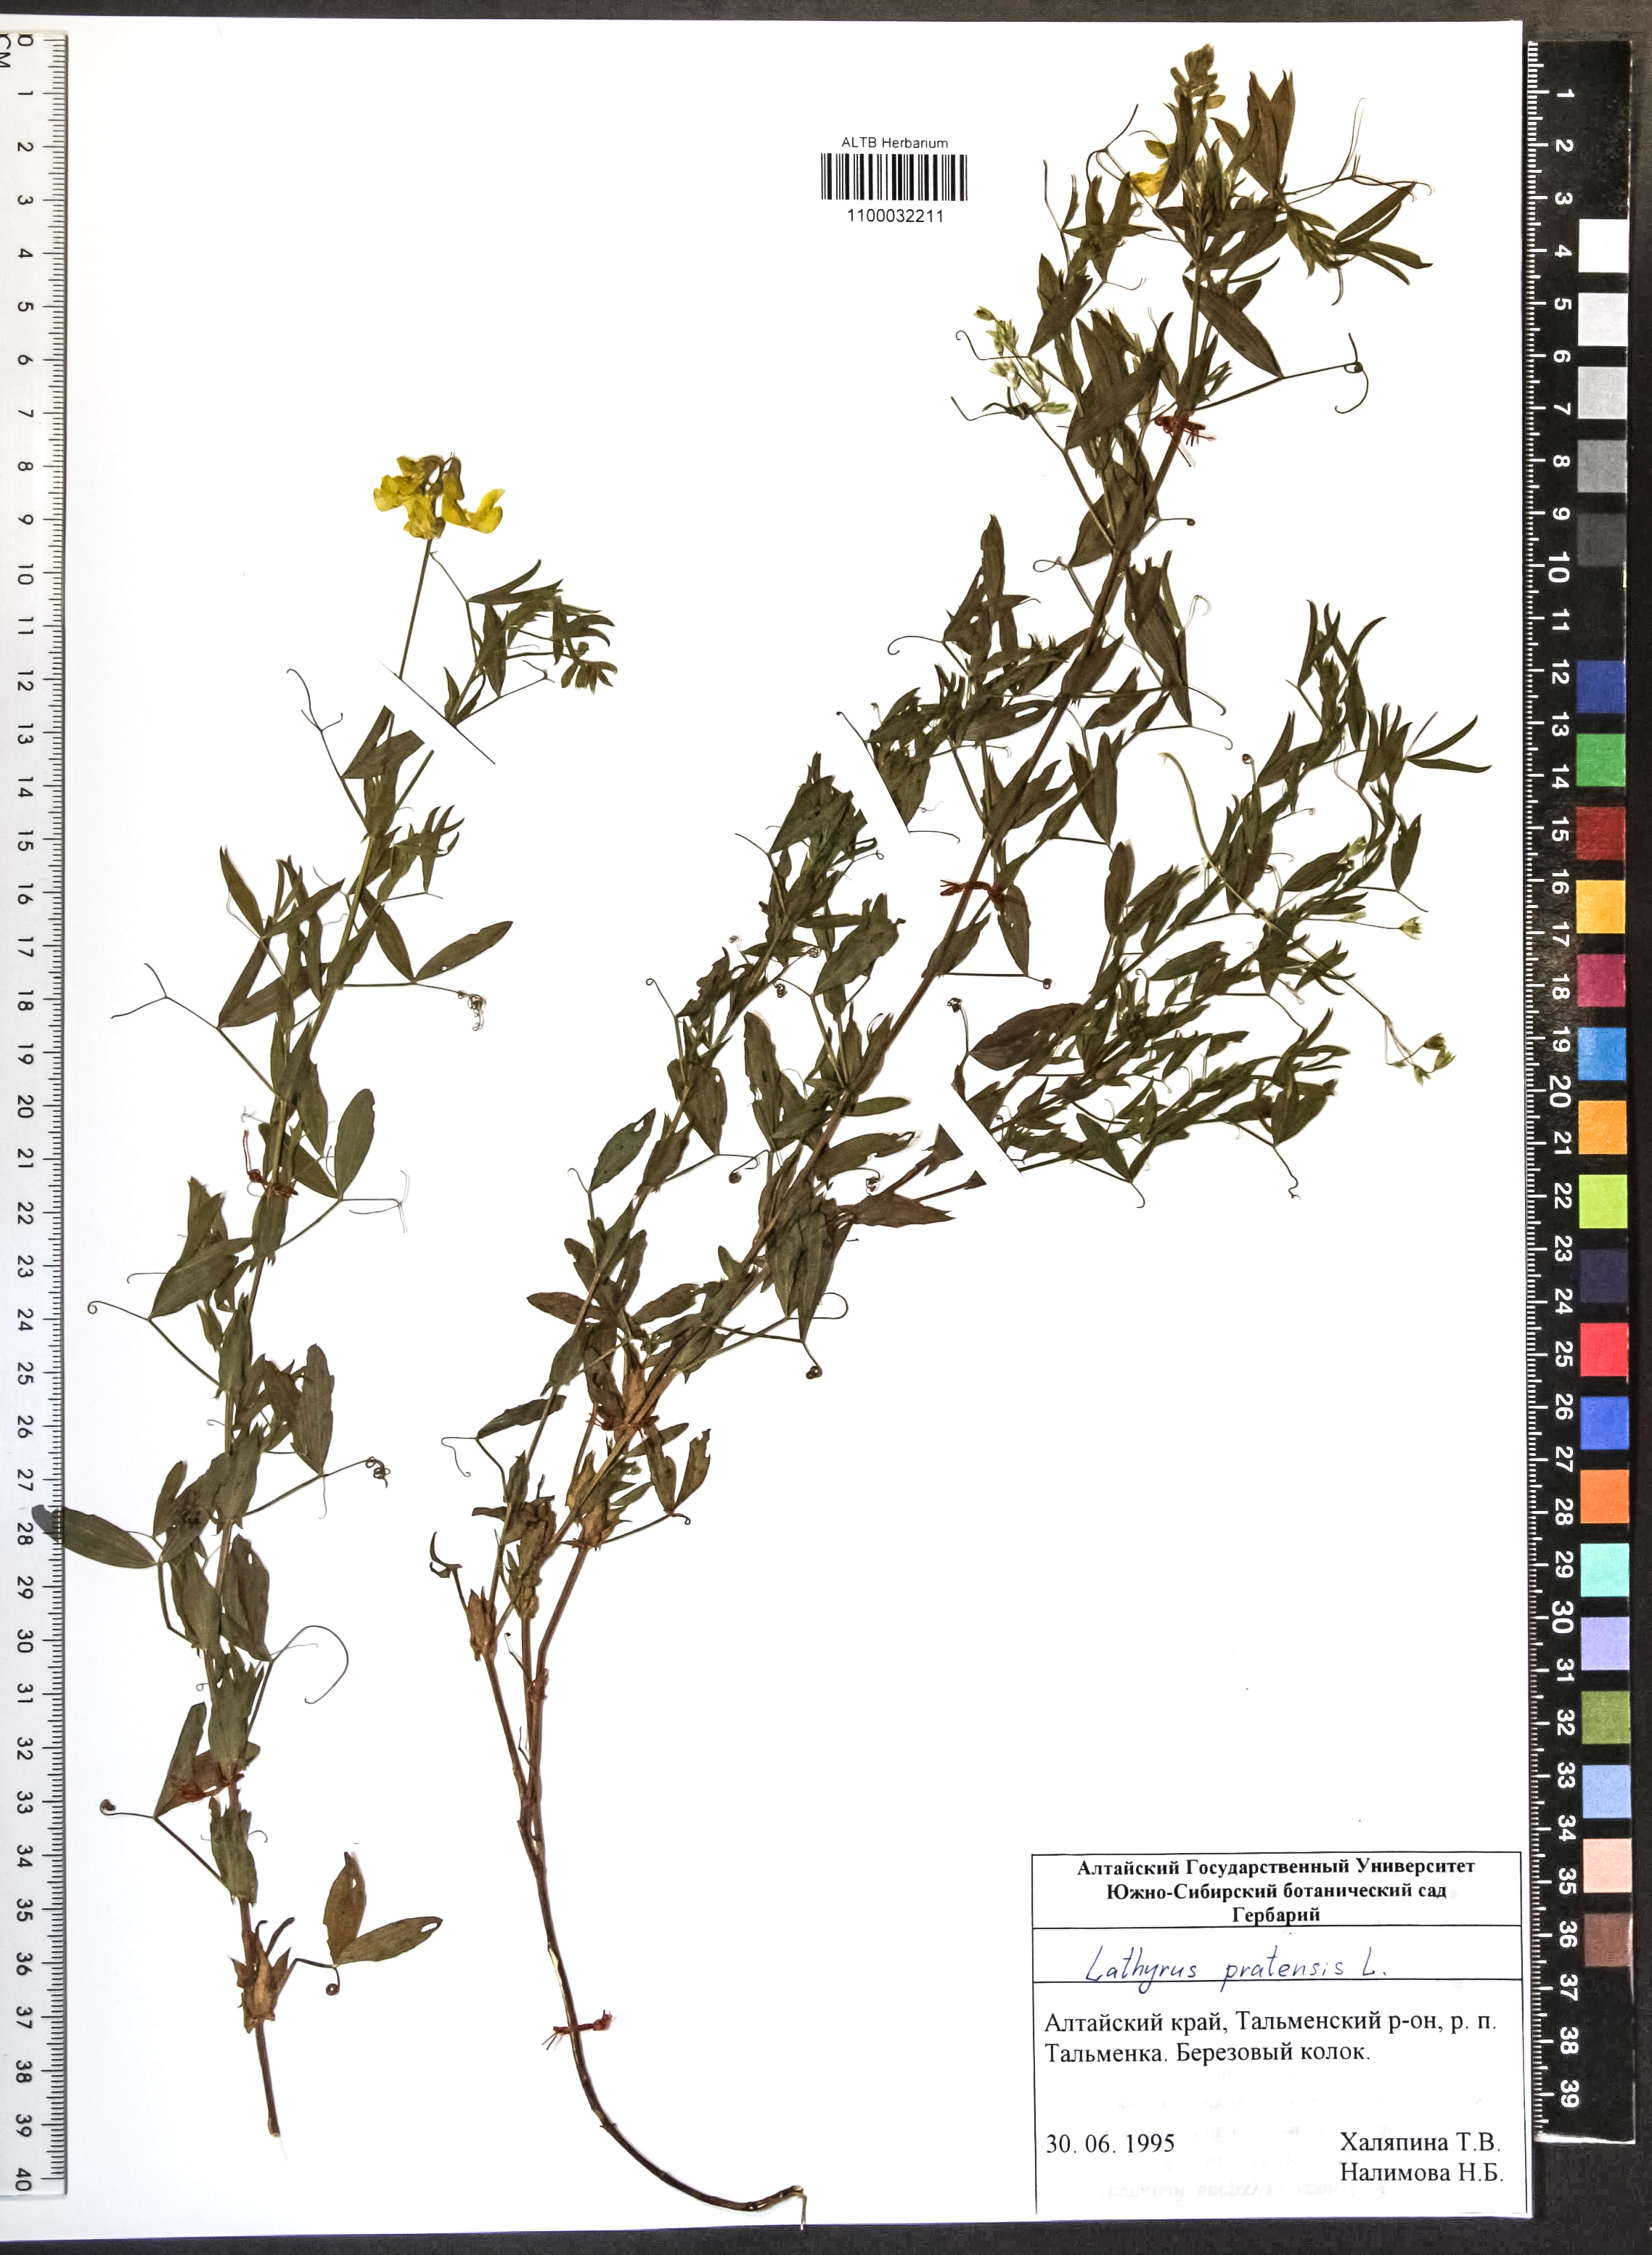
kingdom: Plantae
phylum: Tracheophyta
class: Magnoliopsida
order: Fabales
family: Fabaceae
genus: Lathyrus
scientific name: Lathyrus pratensis
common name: Meadow vetchling
